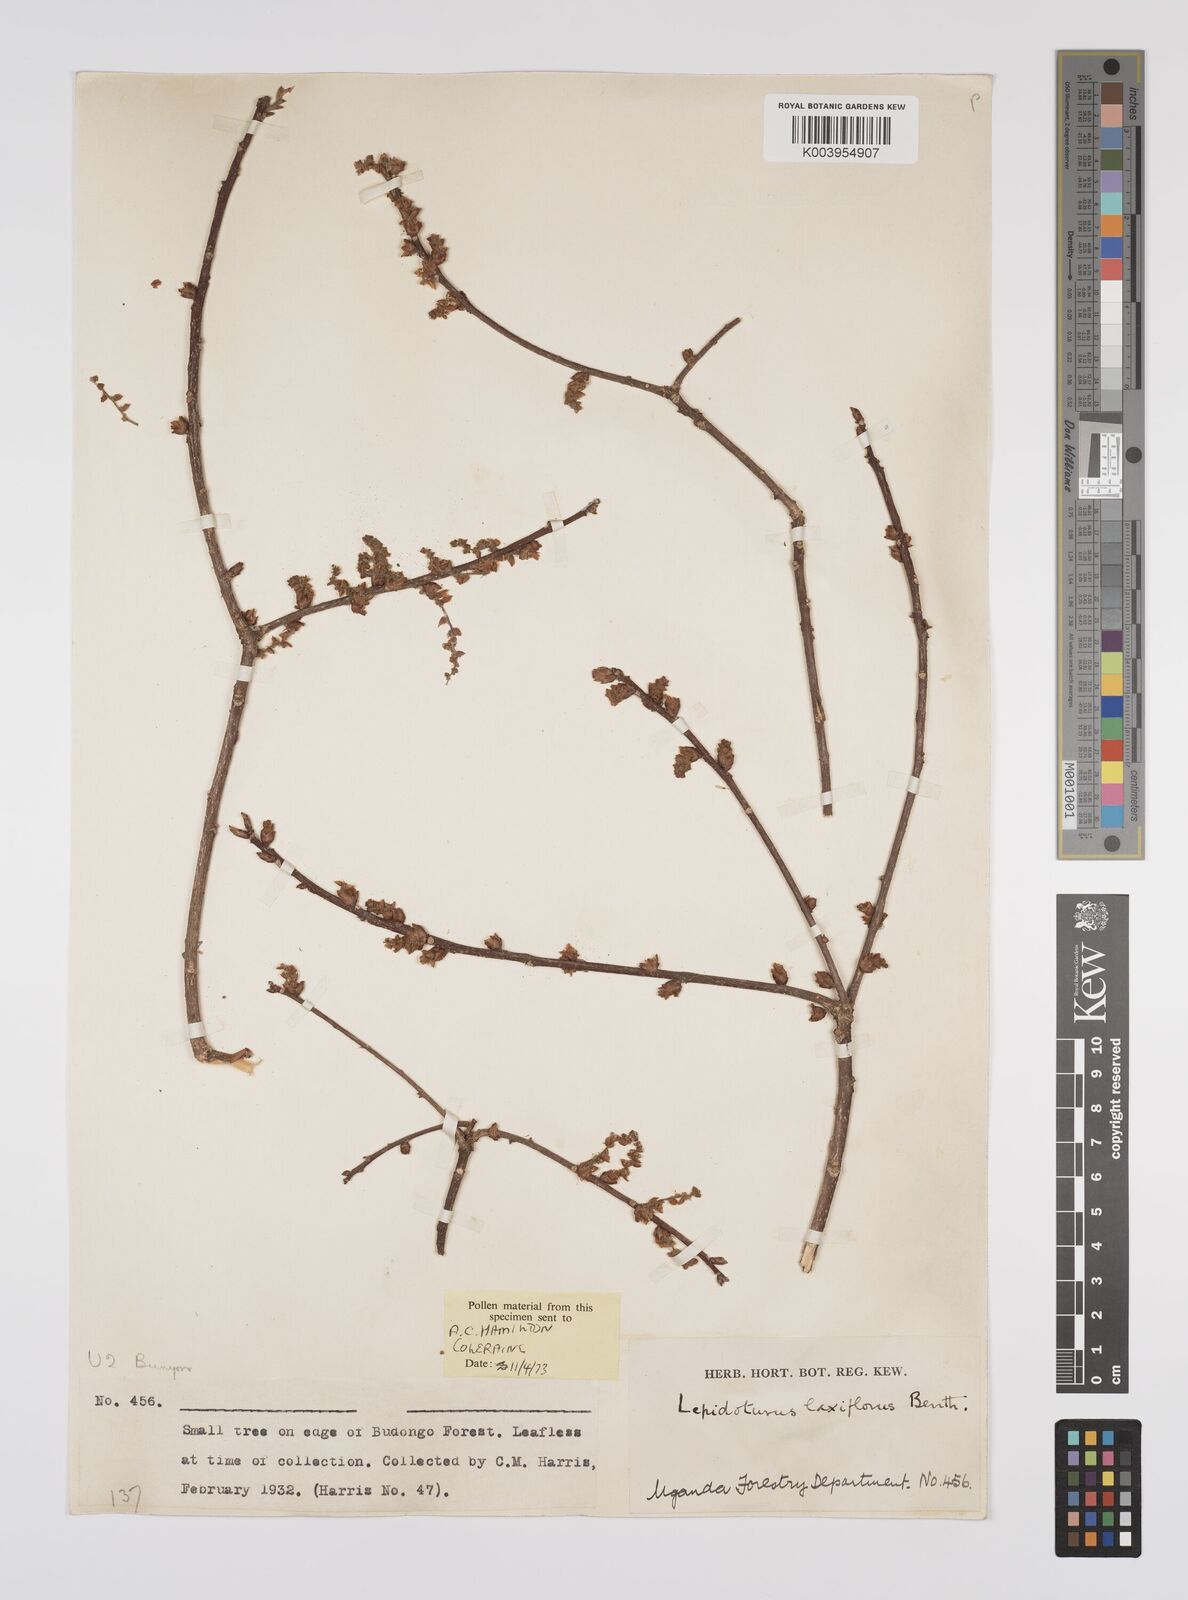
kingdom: Plantae
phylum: Tracheophyta
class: Magnoliopsida
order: Malpighiales
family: Euphorbiaceae
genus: Alchornea
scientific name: Alchornea laxiflora
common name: Lowveld bead-string
